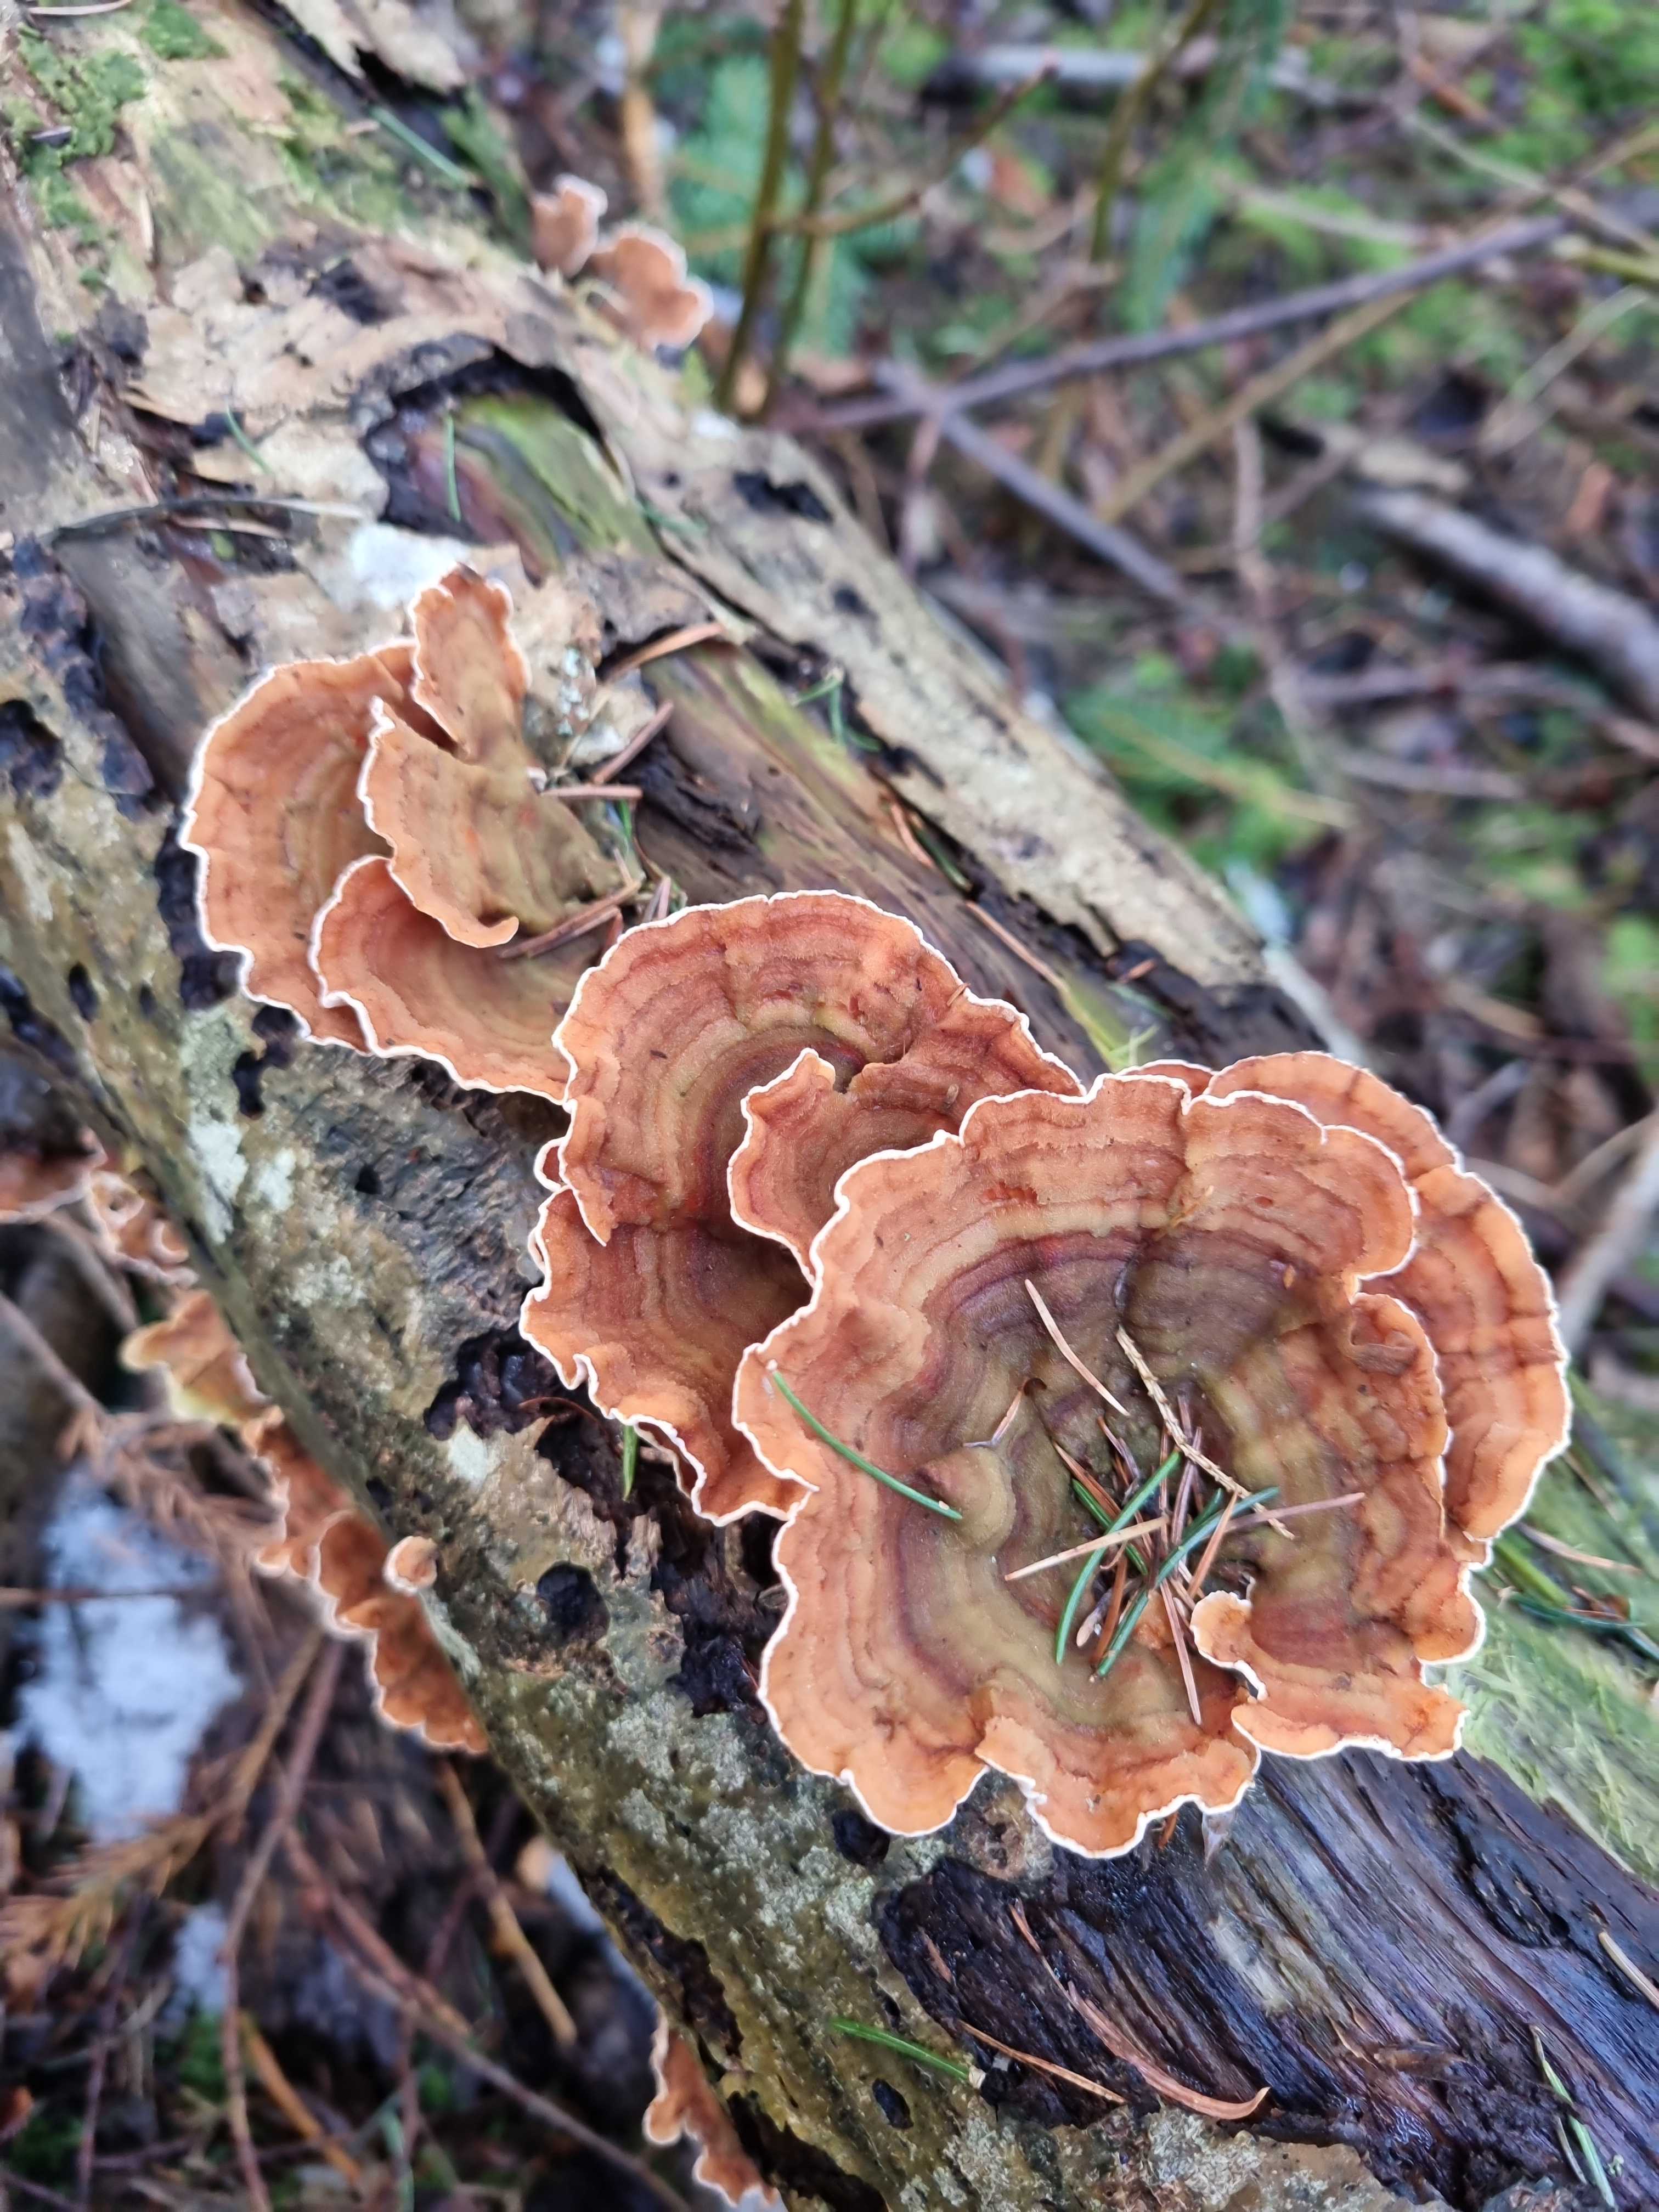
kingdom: Fungi
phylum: Basidiomycota
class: Agaricomycetes
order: Russulales
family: Stereaceae
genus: Stereum
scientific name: Stereum subtomentosum
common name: smuk lædersvamp
